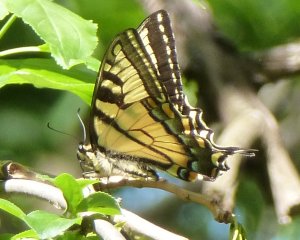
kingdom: Animalia
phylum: Arthropoda
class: Insecta
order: Lepidoptera
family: Papilionidae
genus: Pterourus
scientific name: Pterourus canadensis
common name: Canadian Tiger Swallowtail
